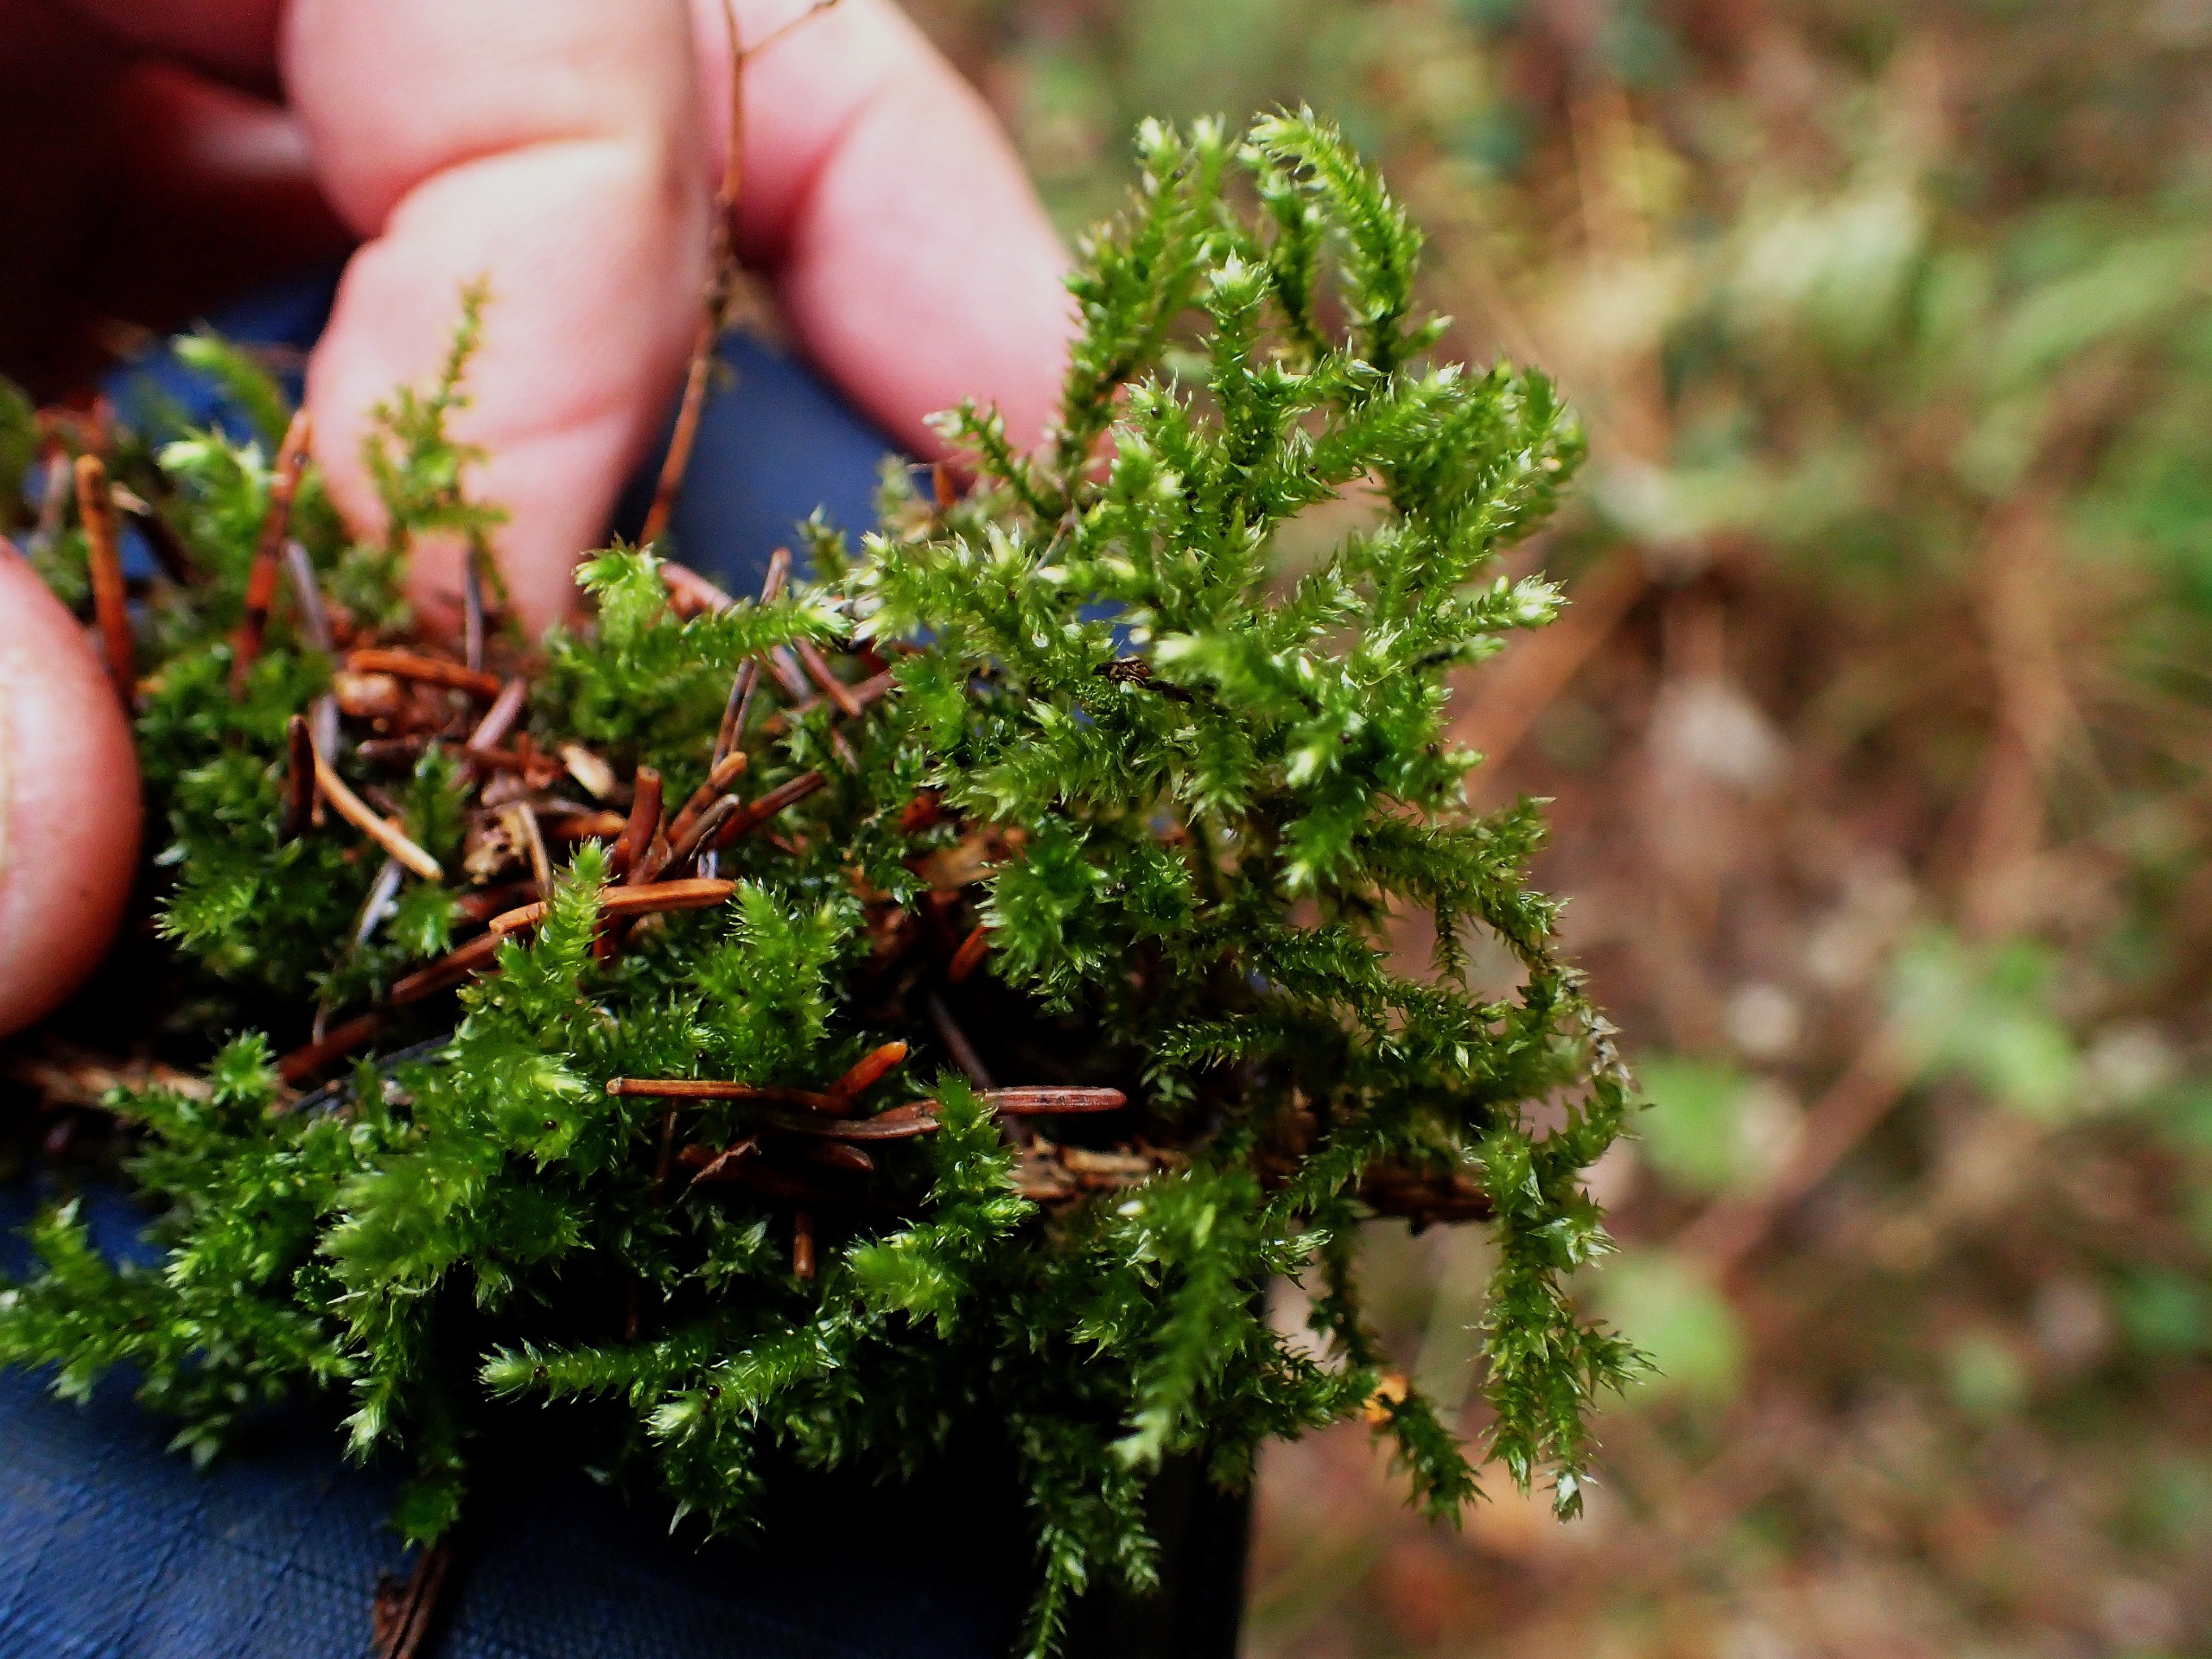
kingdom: Plantae
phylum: Bryophyta
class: Bryopsida
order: Hypnales
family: Brachytheciaceae
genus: Eurhynchium
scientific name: Eurhynchium striatum
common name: Stribet næbmos
